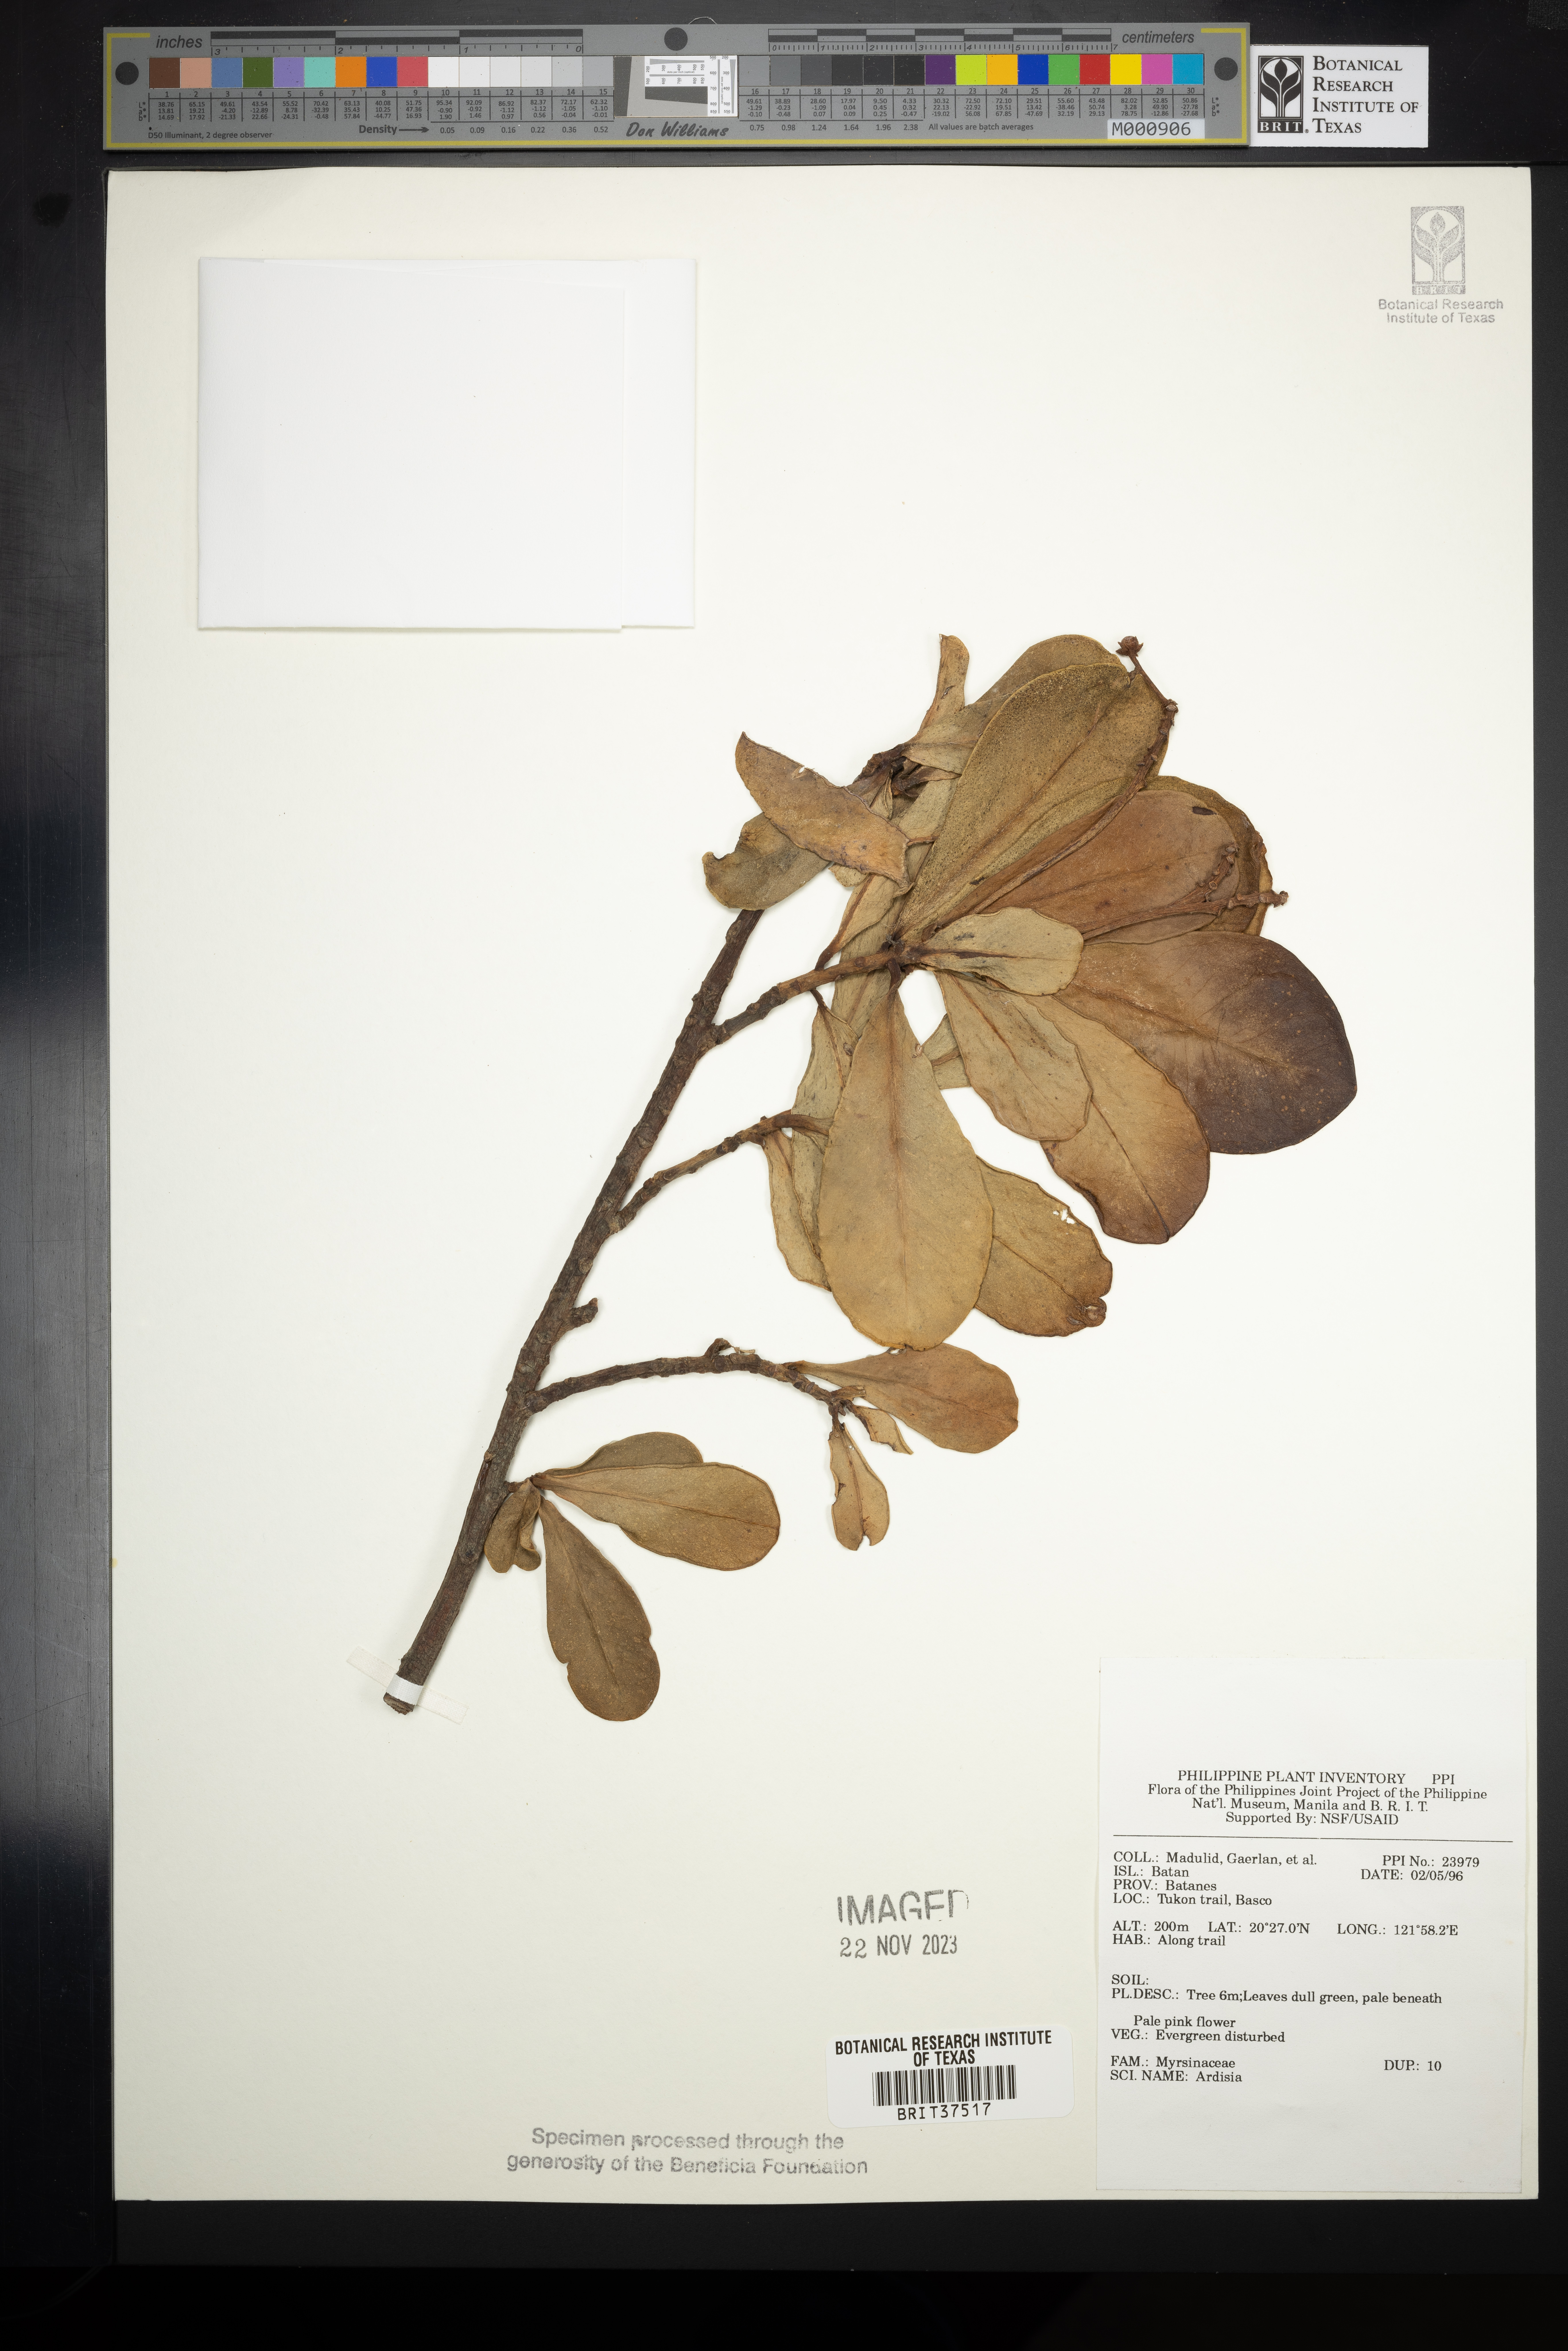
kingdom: Plantae
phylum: Tracheophyta
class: Magnoliopsida
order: Ericales
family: Primulaceae
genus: Ardisia
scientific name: Ardisia
